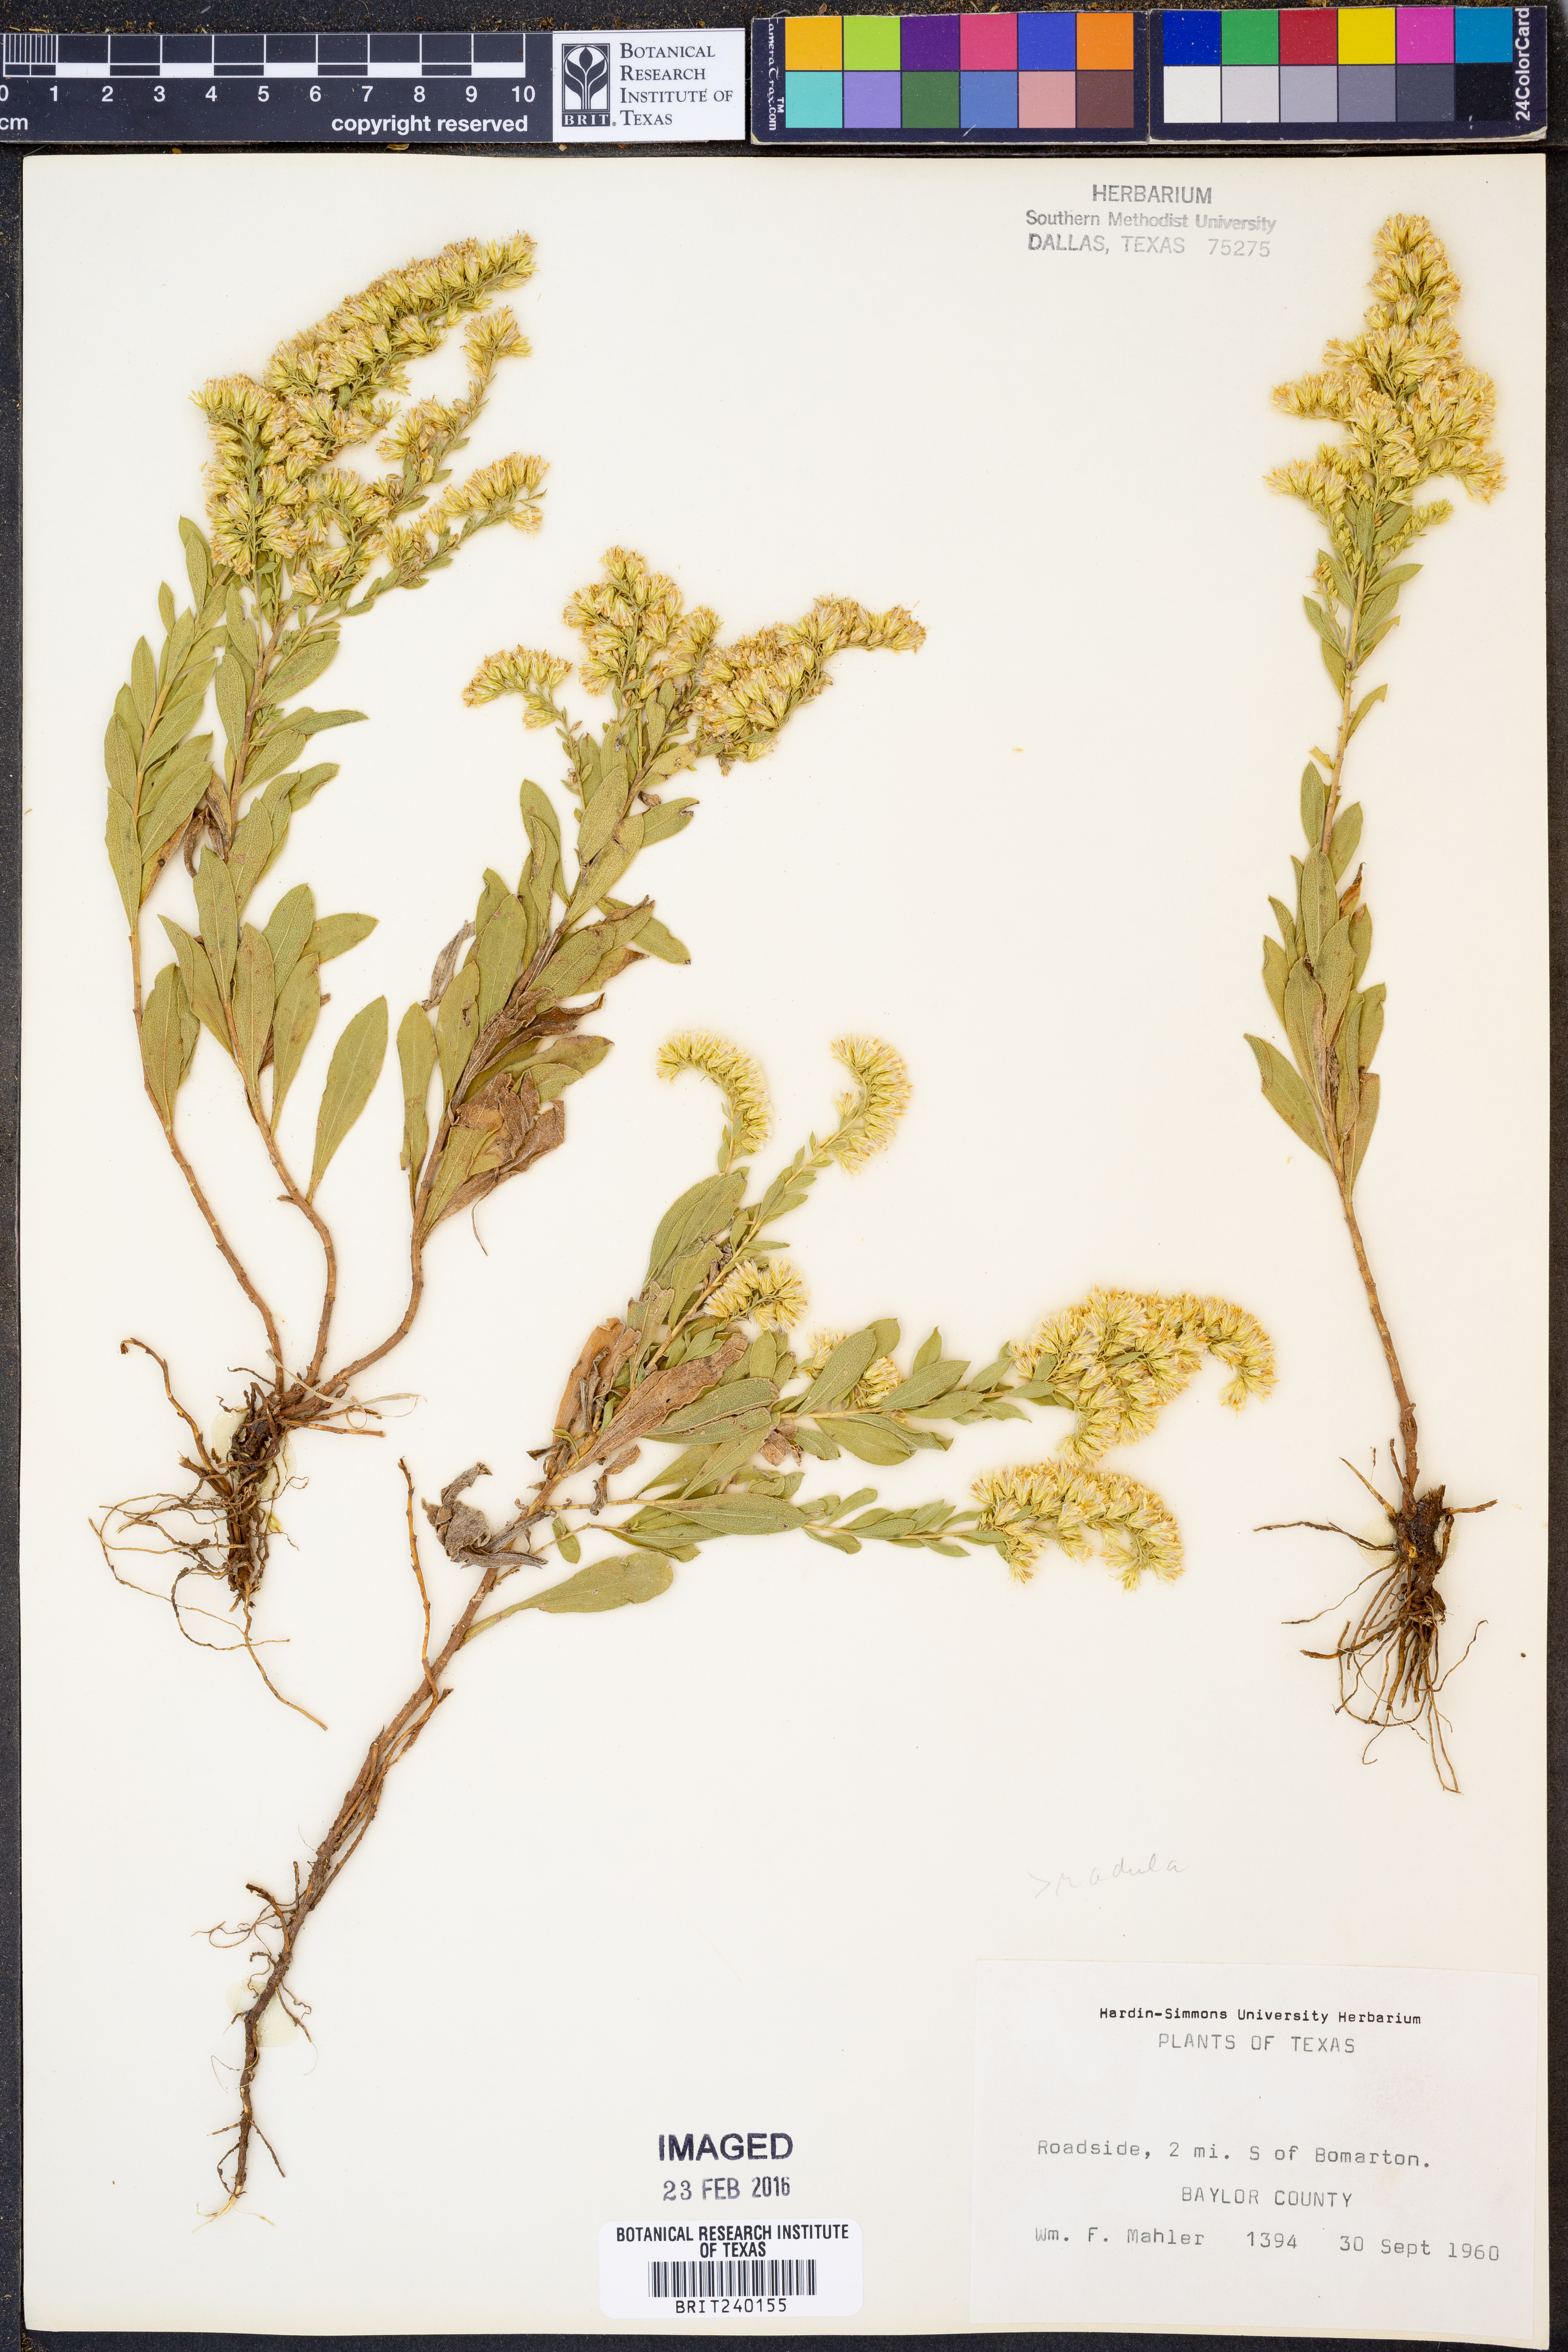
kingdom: Plantae
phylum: Tracheophyta
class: Magnoliopsida
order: Asterales
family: Asteraceae
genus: Solidago
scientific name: Solidago radula
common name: Western rough goldenrod
